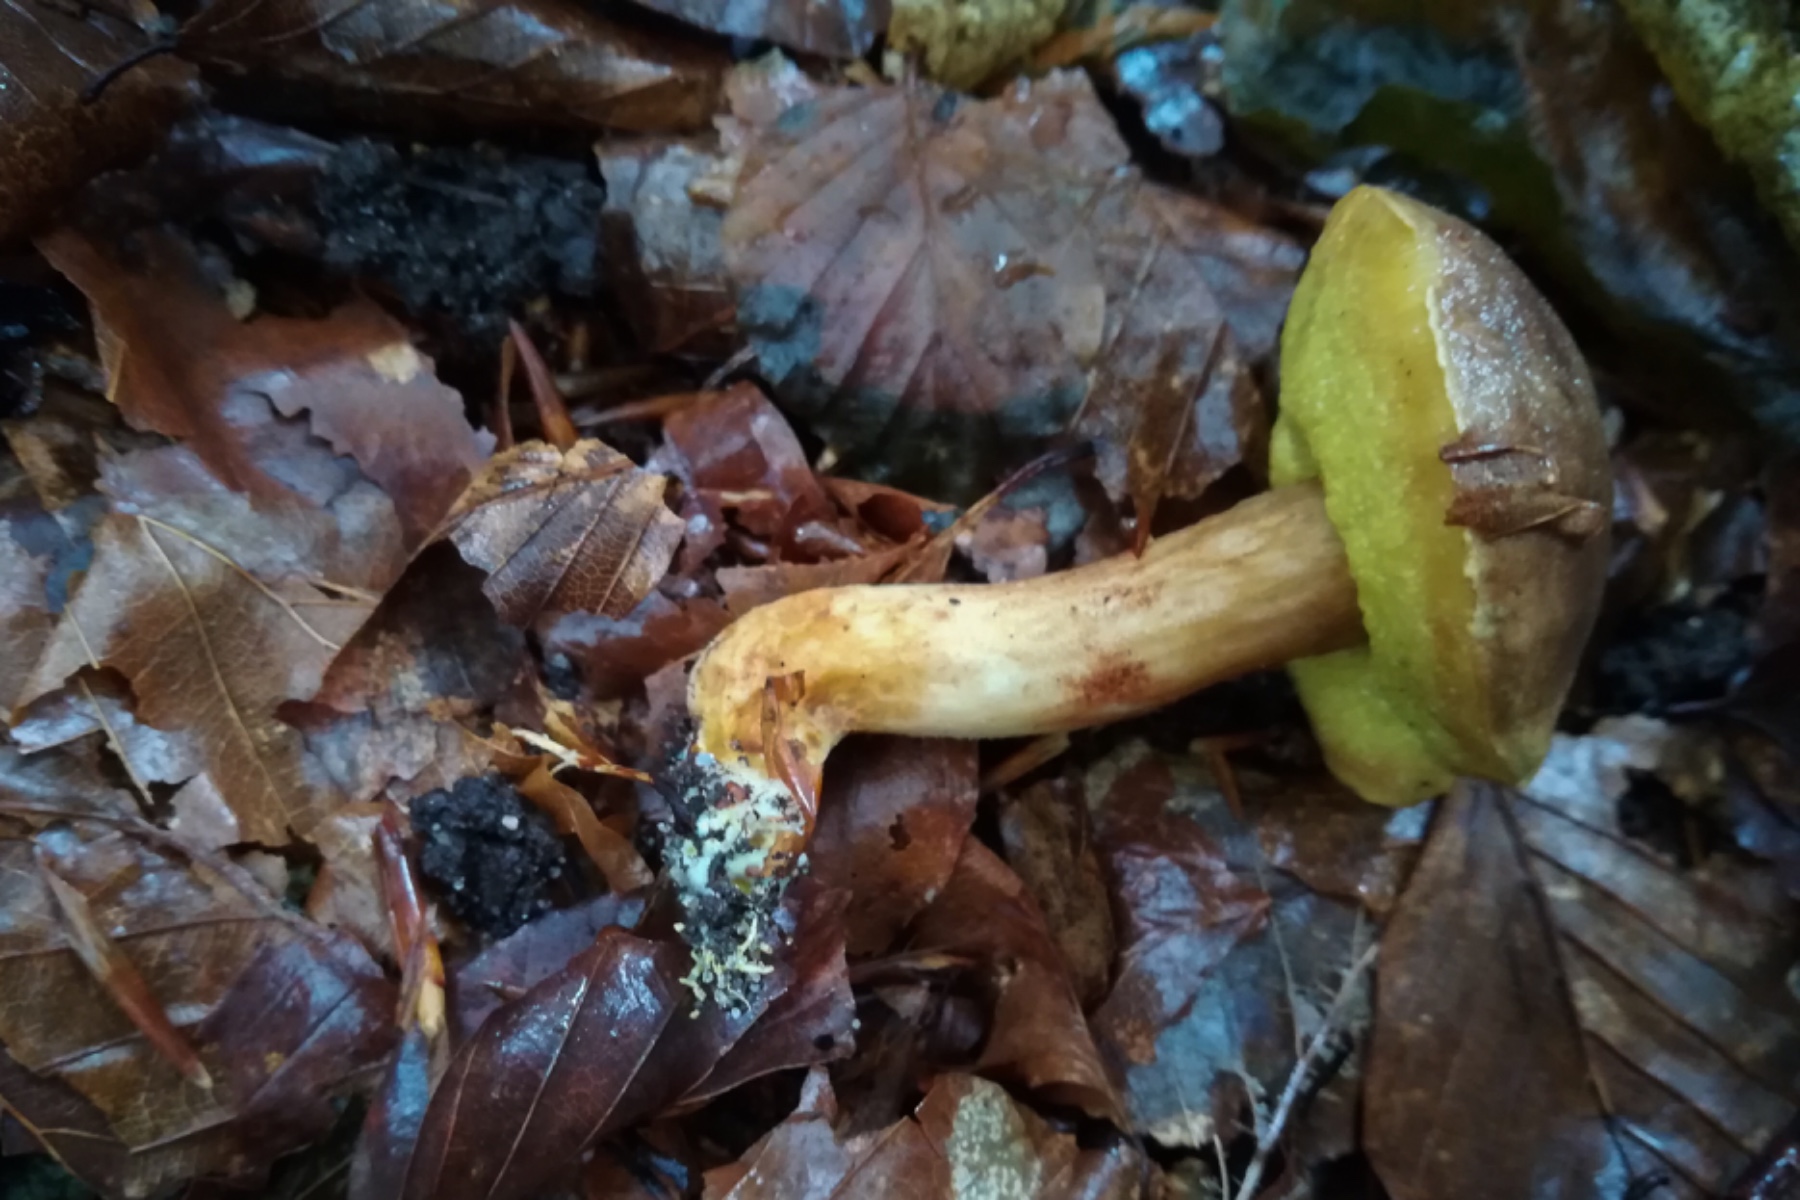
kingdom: Fungi
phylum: Basidiomycota
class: Agaricomycetes
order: Boletales
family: Boletaceae
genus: Xerocomus
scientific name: Xerocomus ferrugineus
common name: vaskeskinds-rørhat
